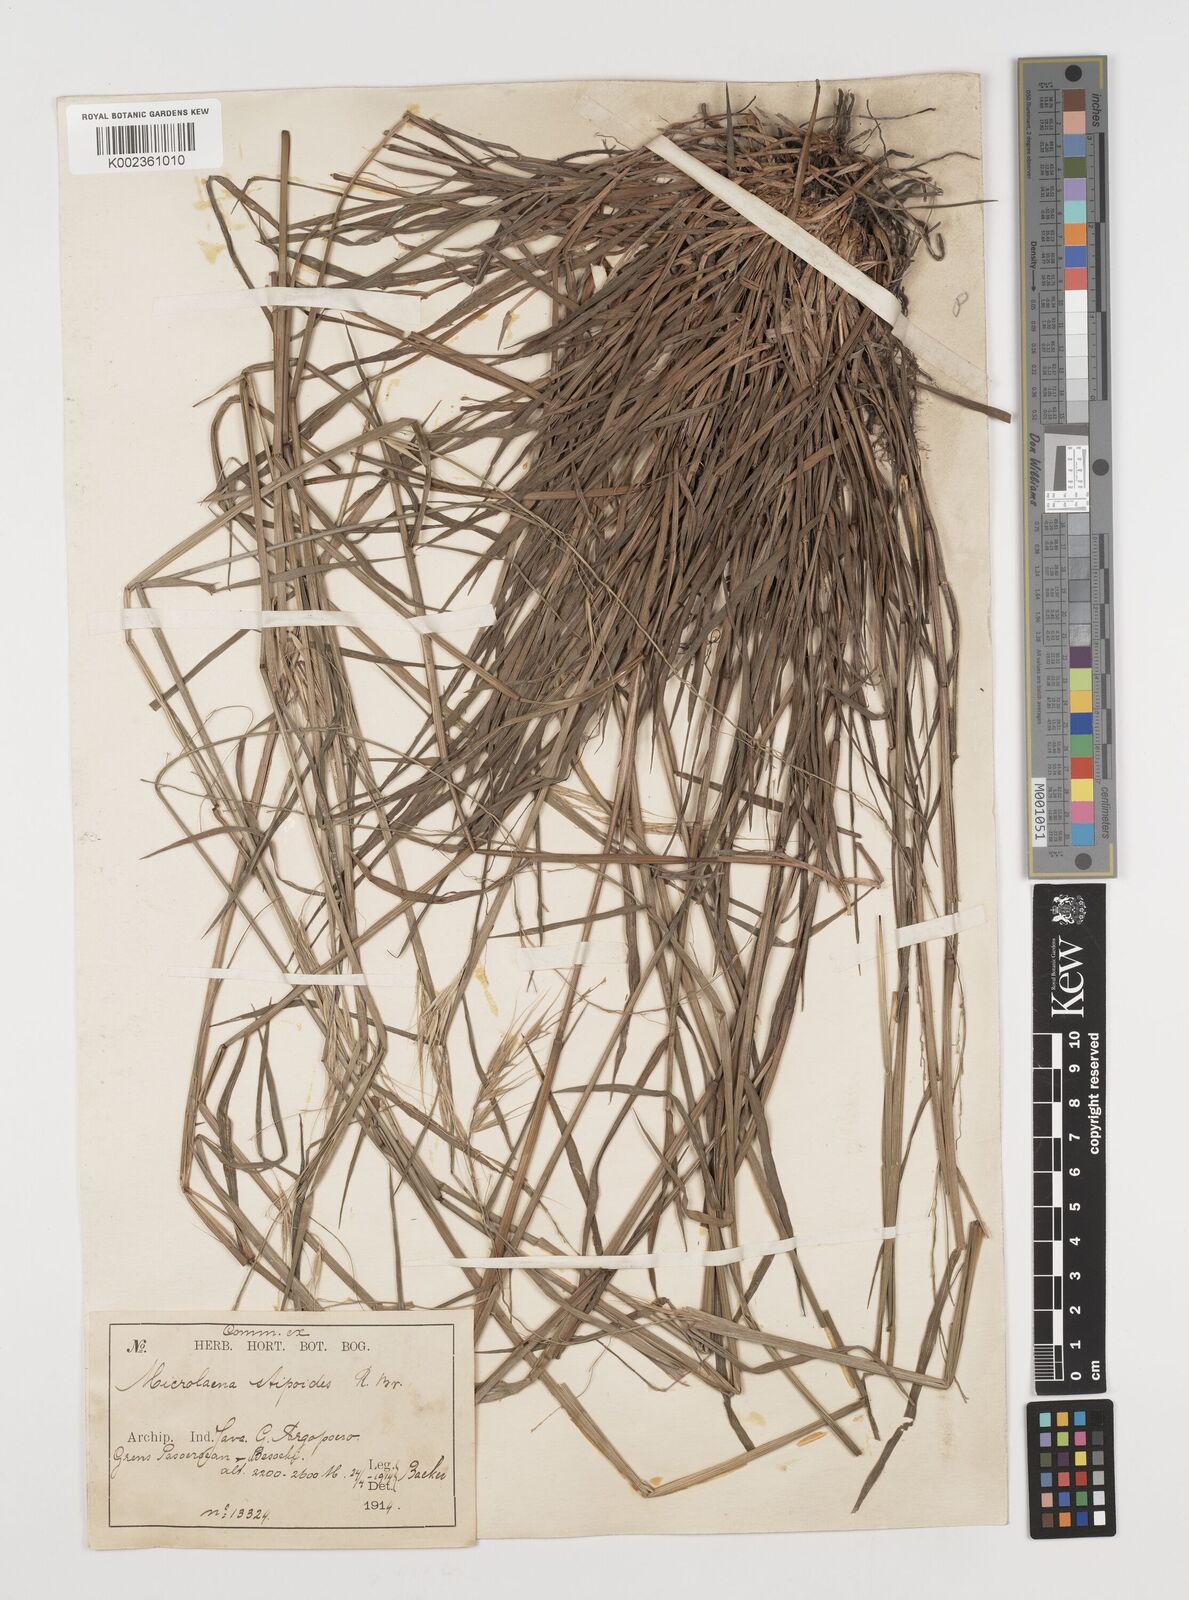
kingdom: Plantae
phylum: Tracheophyta
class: Liliopsida
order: Poales
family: Poaceae
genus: Microlaena
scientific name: Microlaena stipoides
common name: Meadow ricegrass
